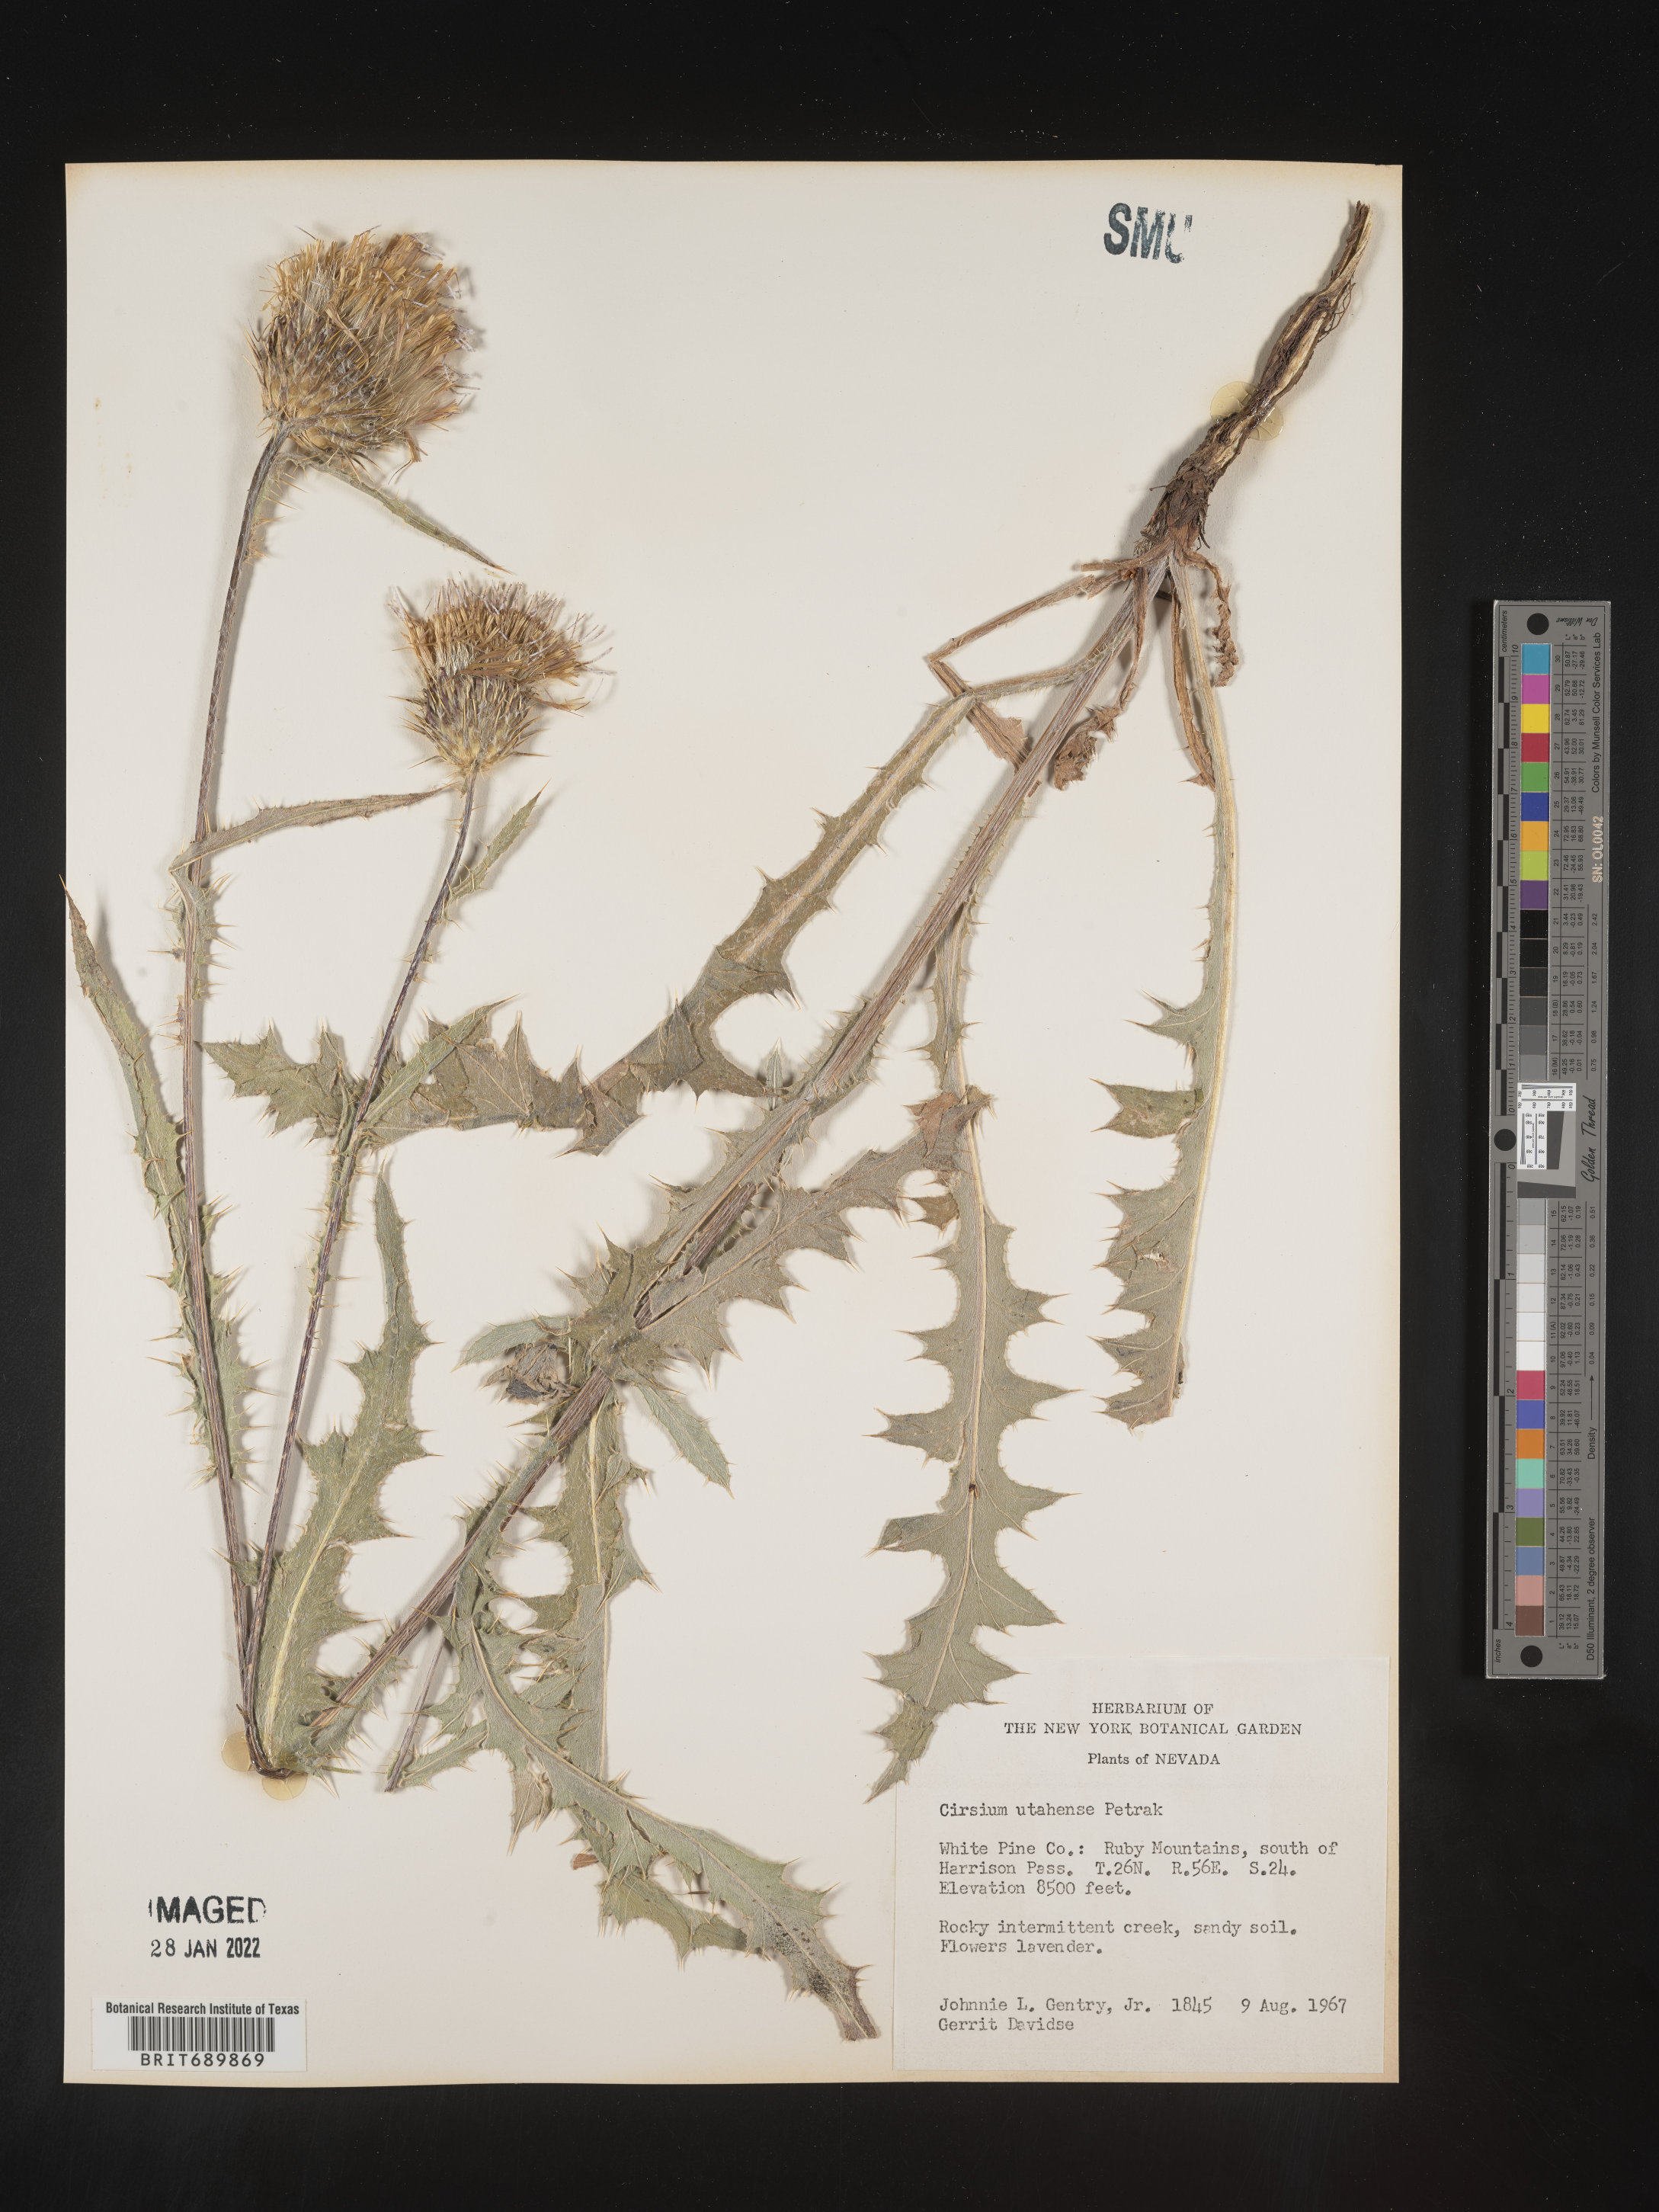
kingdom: Plantae
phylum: Tracheophyta
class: Magnoliopsida
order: Asterales
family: Asteraceae
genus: Cirsium
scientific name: Cirsium
